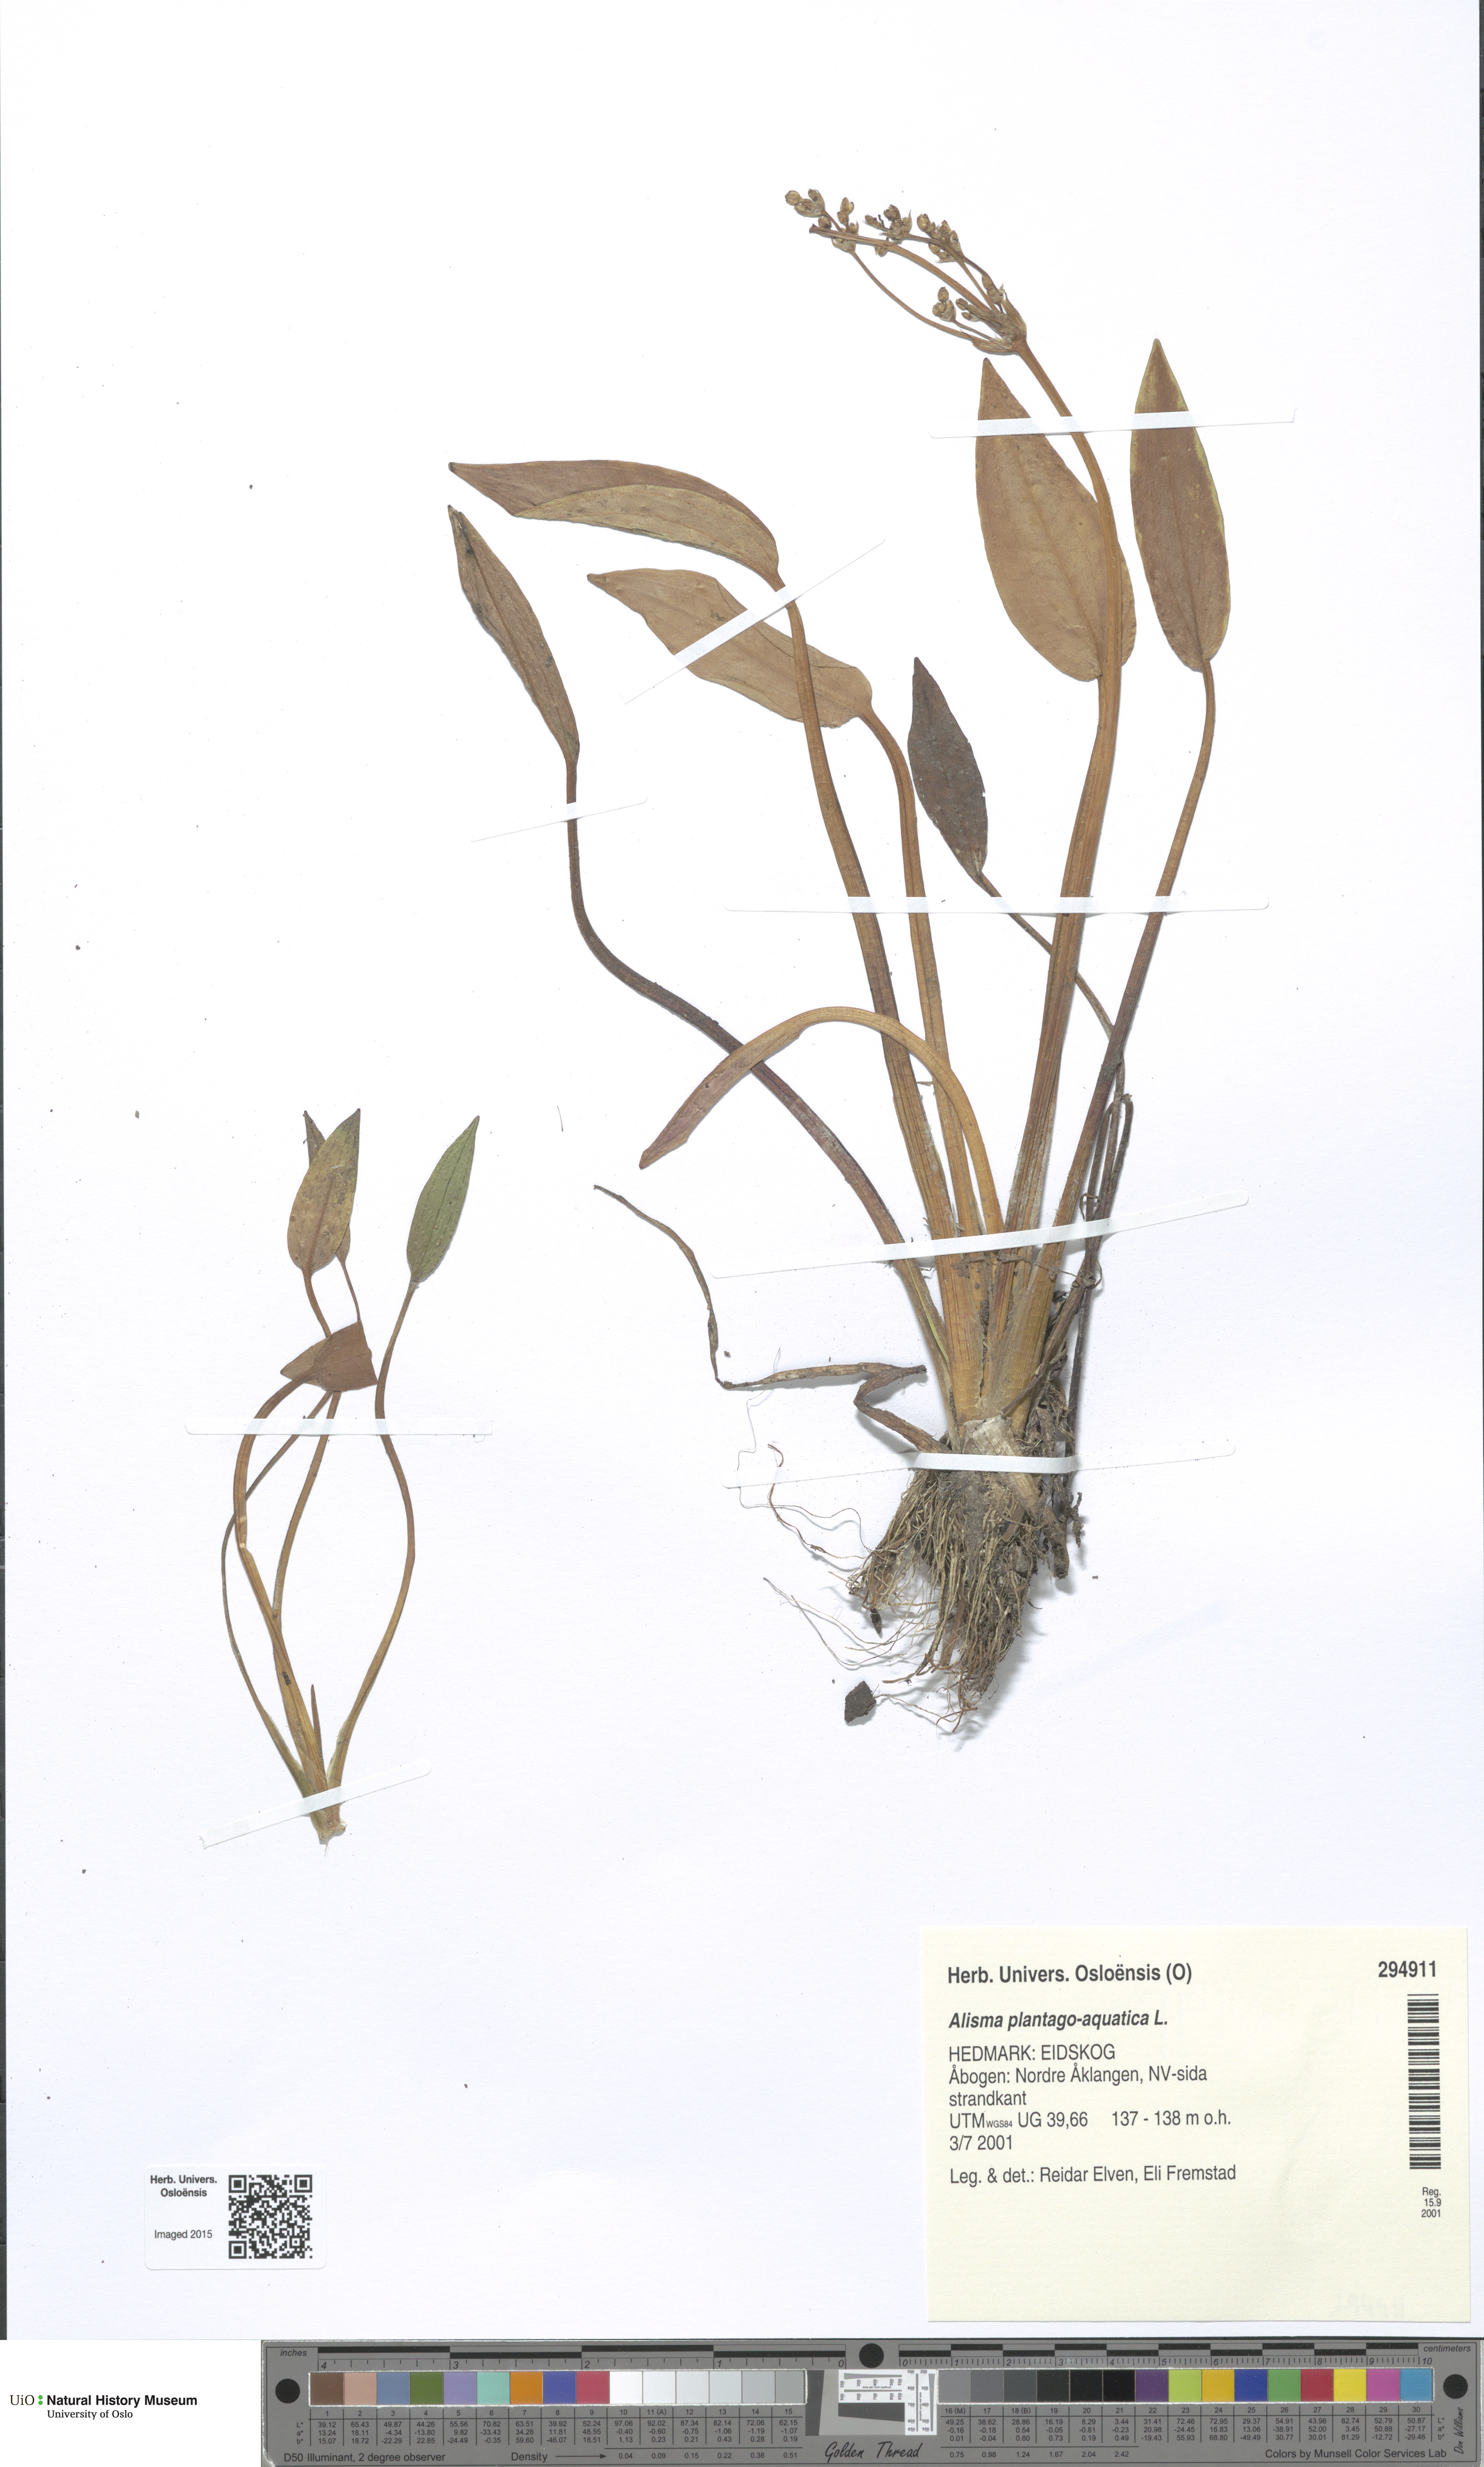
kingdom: Plantae
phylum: Tracheophyta
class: Liliopsida
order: Alismatales
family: Alismataceae
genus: Alisma
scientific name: Alisma plantago-aquatica
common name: Water-plantain
